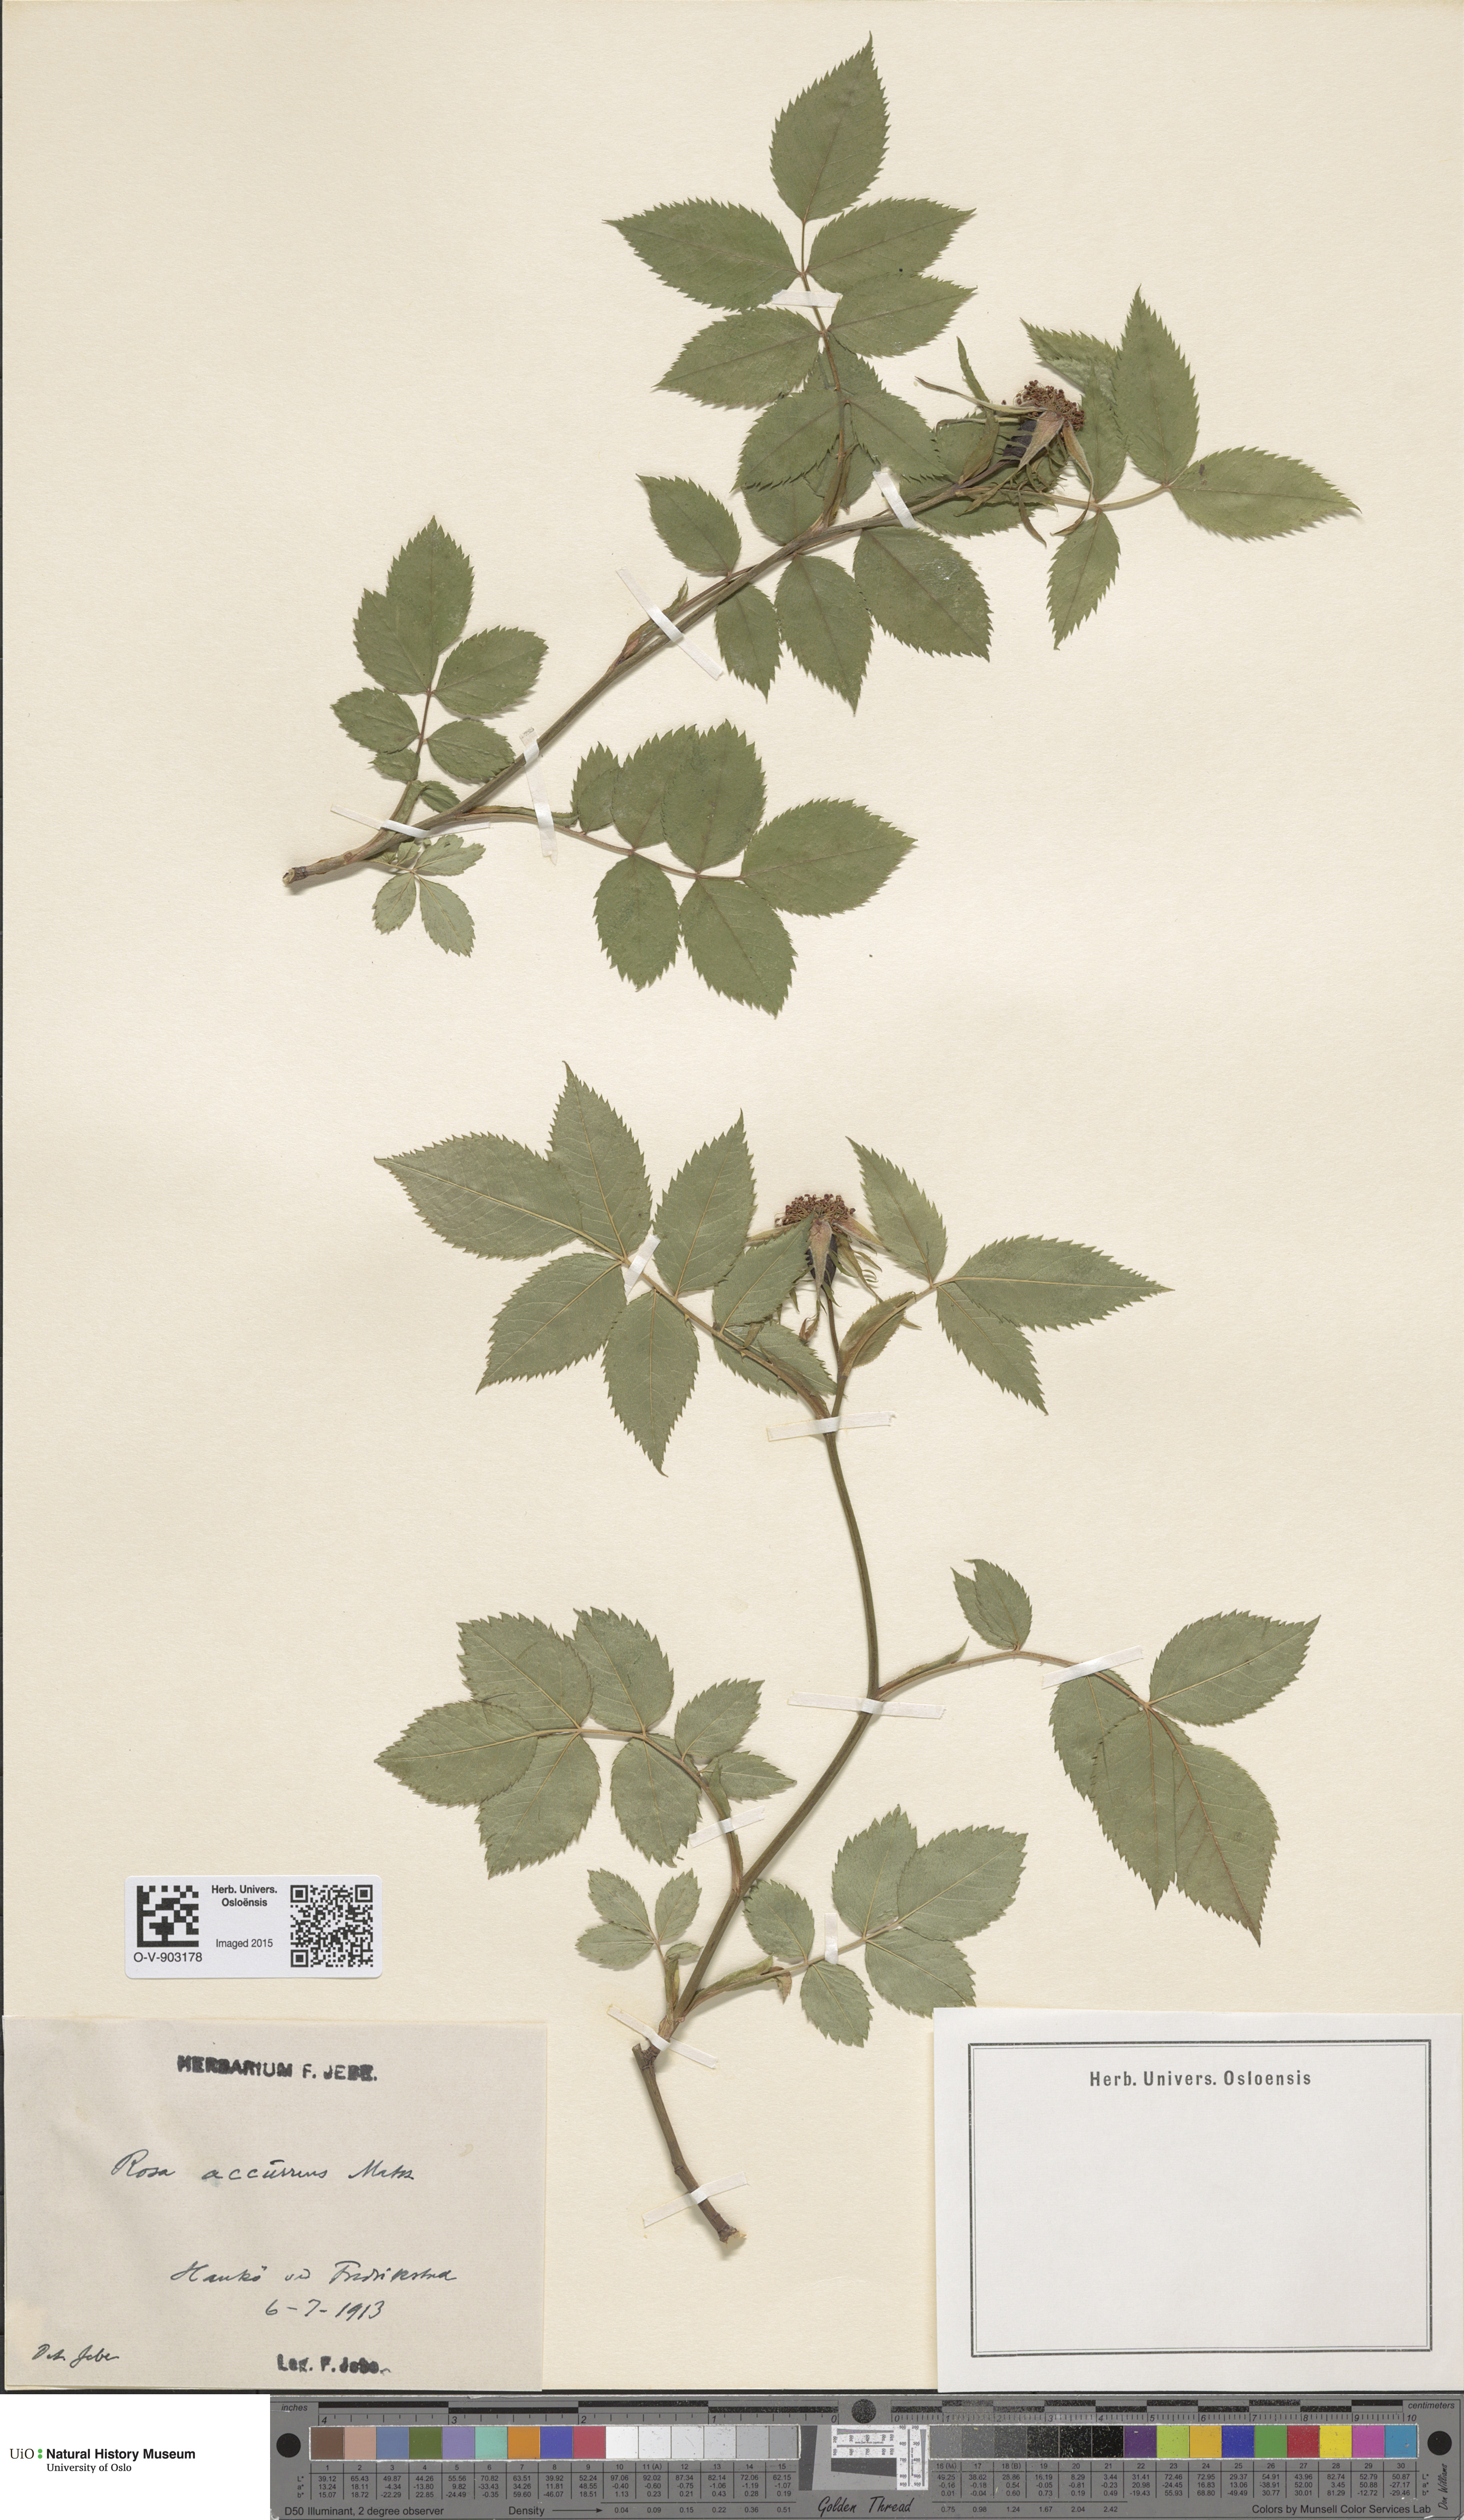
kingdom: Plantae
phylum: Tracheophyta
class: Magnoliopsida
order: Rosales
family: Rosaceae
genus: Rosa
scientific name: Rosa retecta
